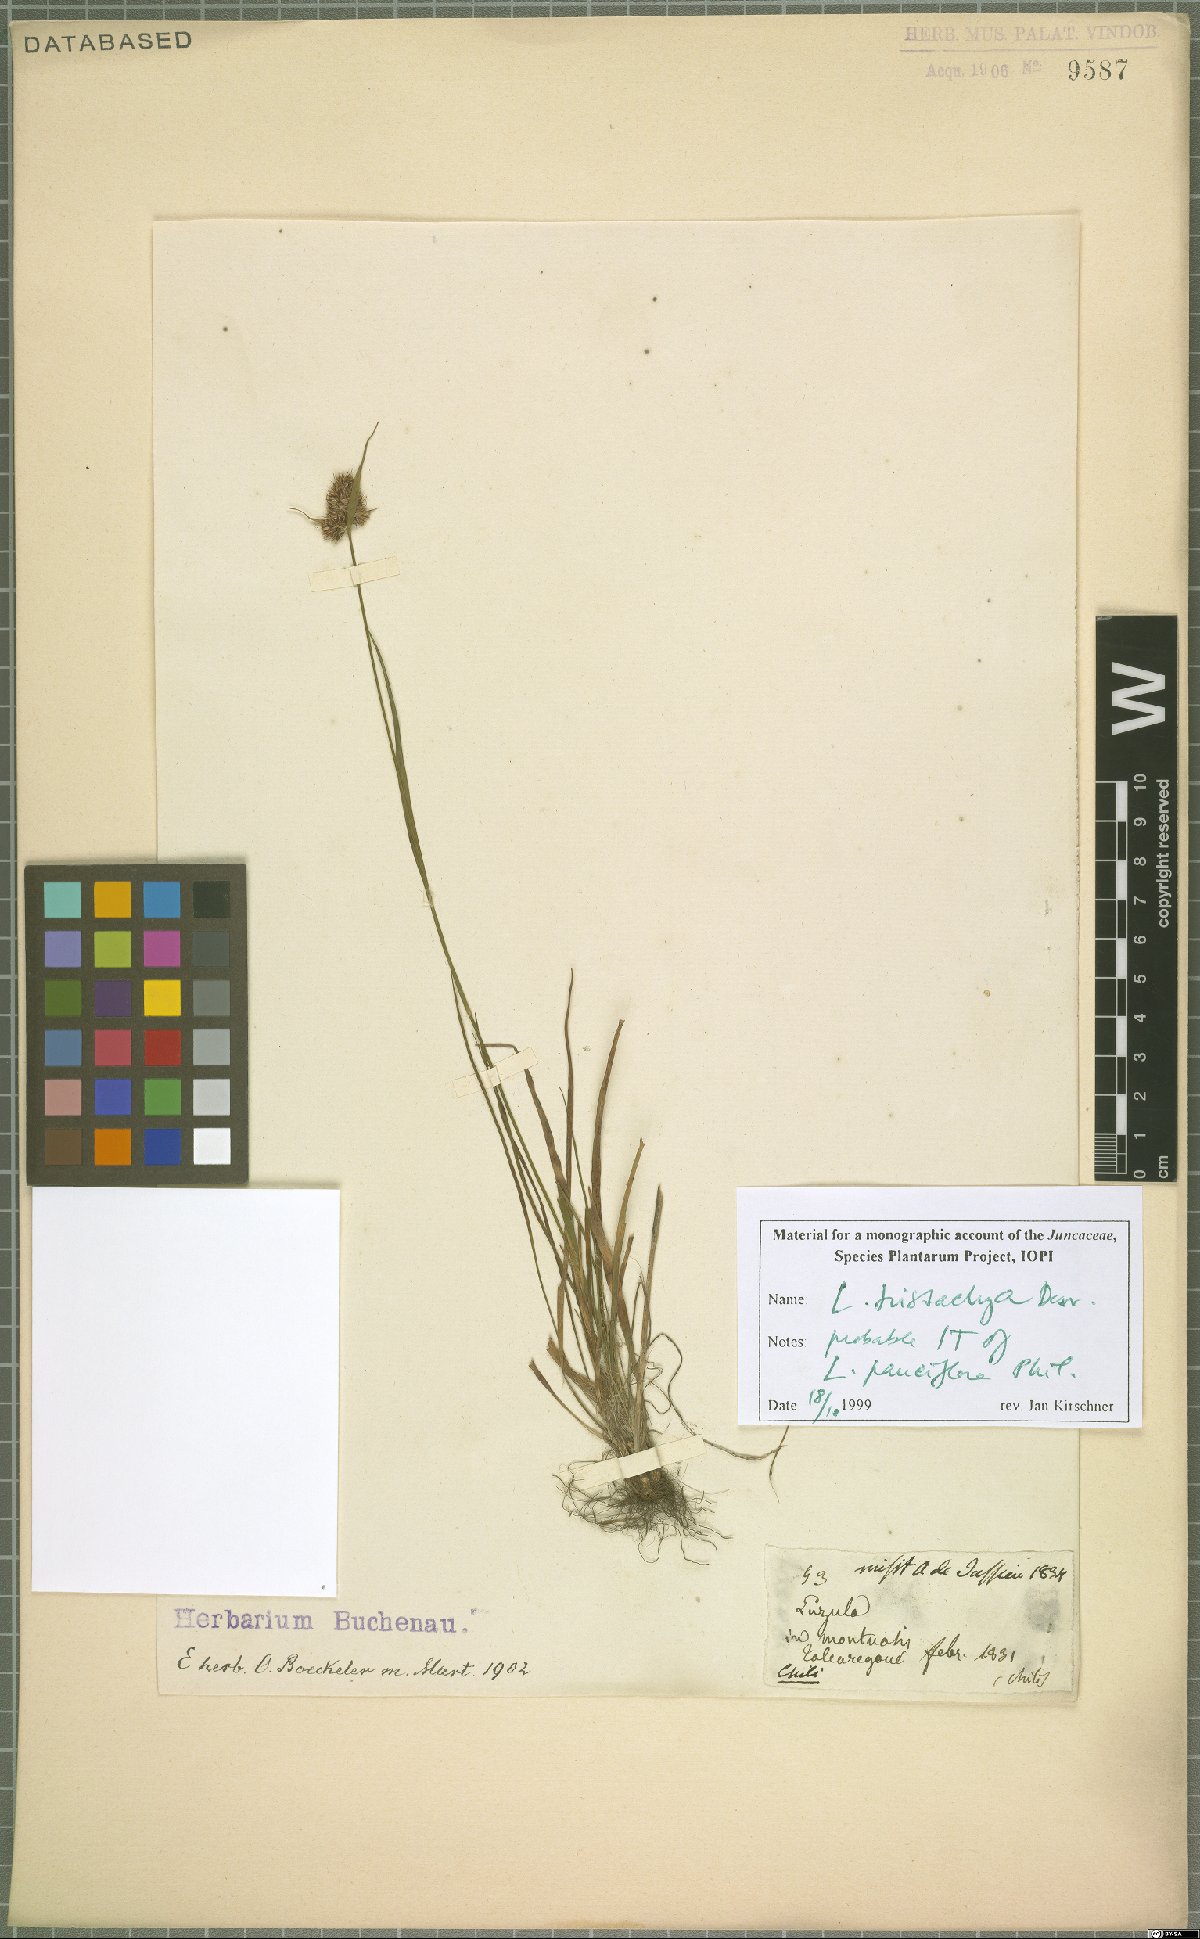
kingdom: Plantae
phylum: Tracheophyta
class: Liliopsida
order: Poales
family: Juncaceae
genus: Luzula
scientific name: Luzula tristachya
